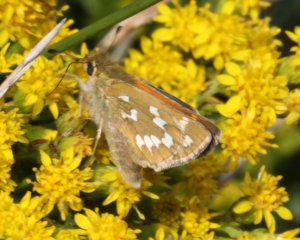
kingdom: Animalia
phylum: Arthropoda
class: Insecta
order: Lepidoptera
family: Hesperiidae
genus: Hesperia
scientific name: Hesperia comma
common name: Common Branded Skipper
